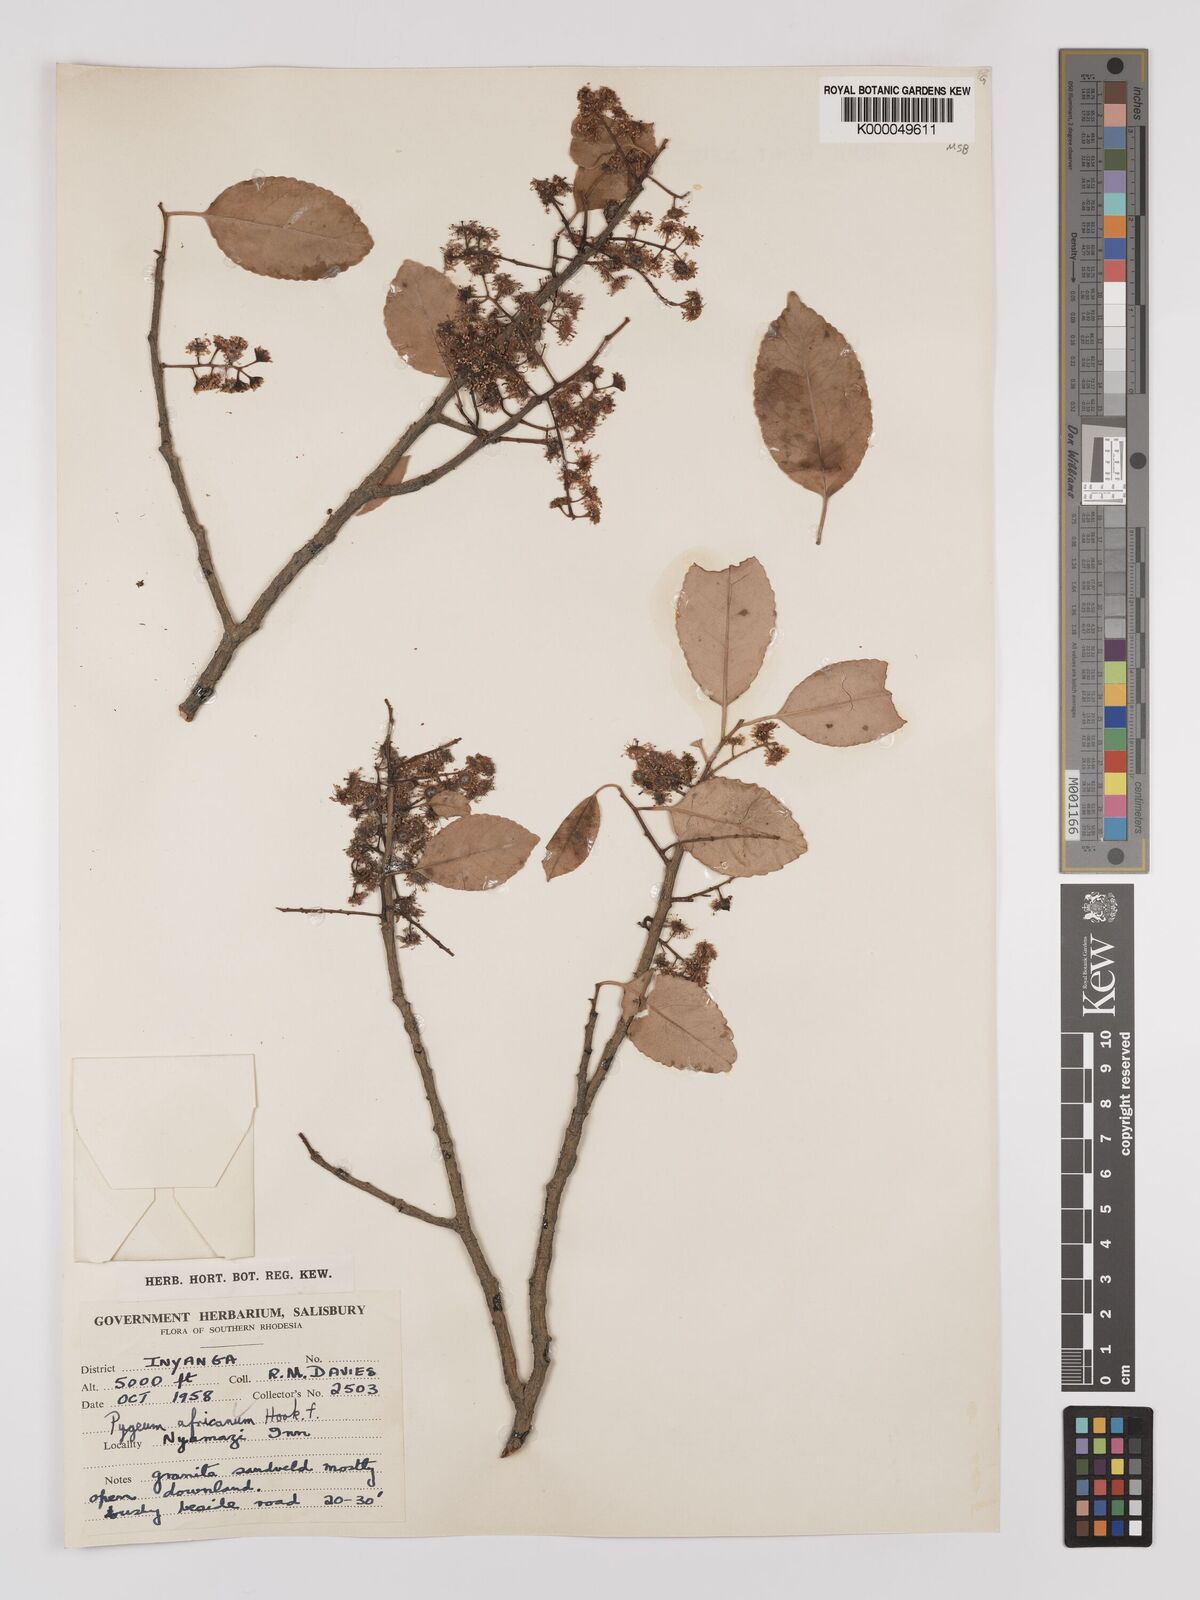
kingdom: Plantae
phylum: Tracheophyta
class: Magnoliopsida
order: Rosales
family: Rosaceae
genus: Prunus
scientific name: Prunus africana
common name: African cherry
